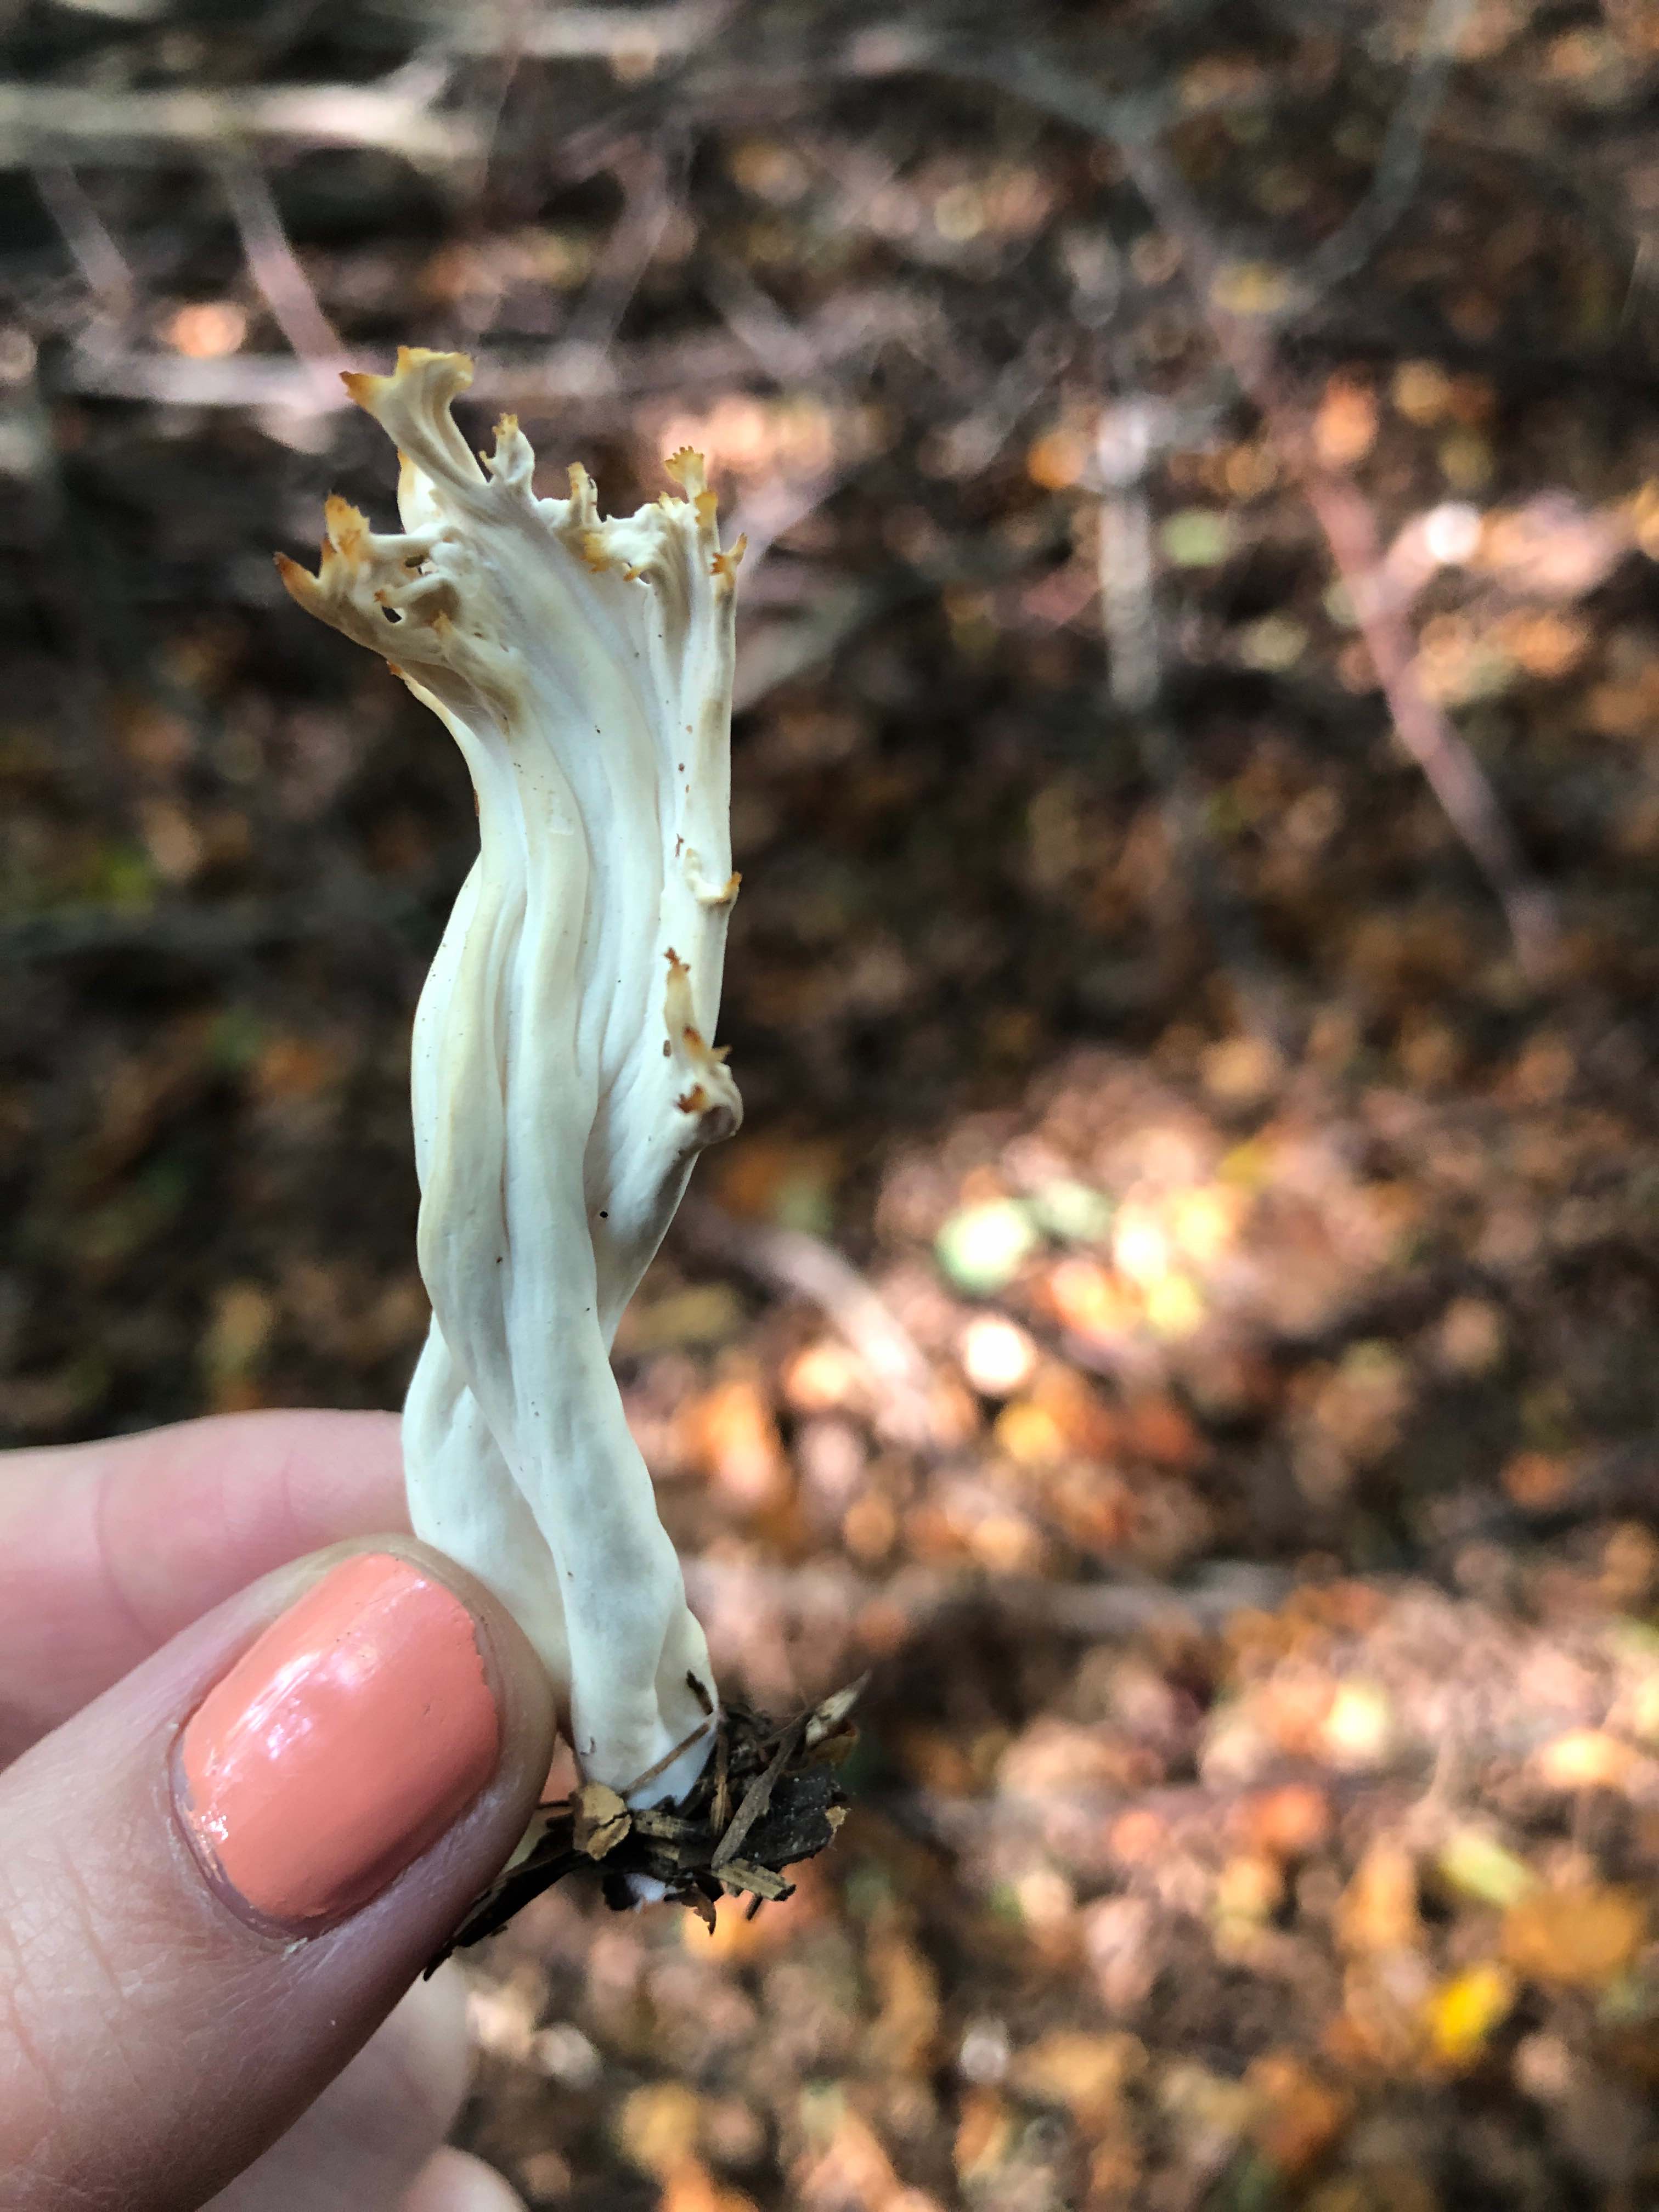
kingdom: Fungi
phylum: Basidiomycota
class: Agaricomycetes
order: Cantharellales
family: Hydnaceae
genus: Clavulina
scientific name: Clavulina
